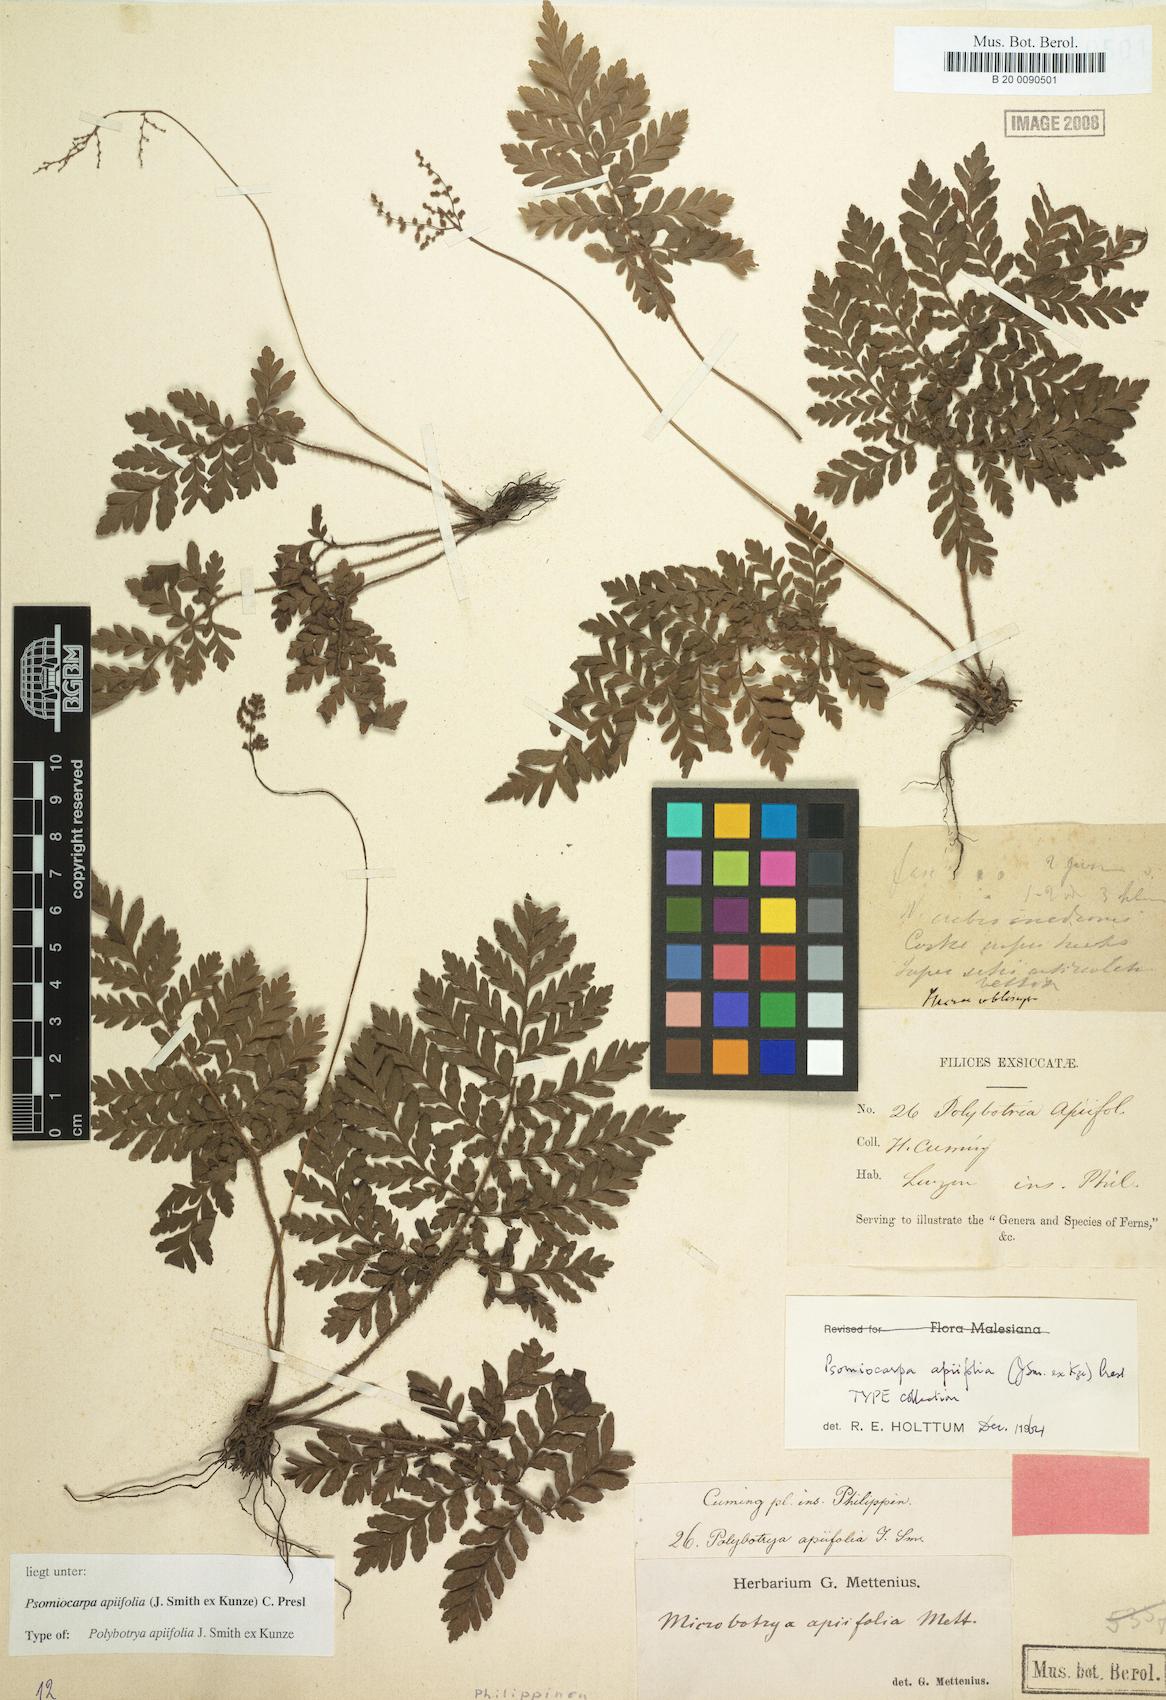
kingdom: Plantae
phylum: Tracheophyta
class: Polypodiopsida
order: Polypodiales
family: Tectariaceae
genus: Tectaria
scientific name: Tectaria psomiocarpa
